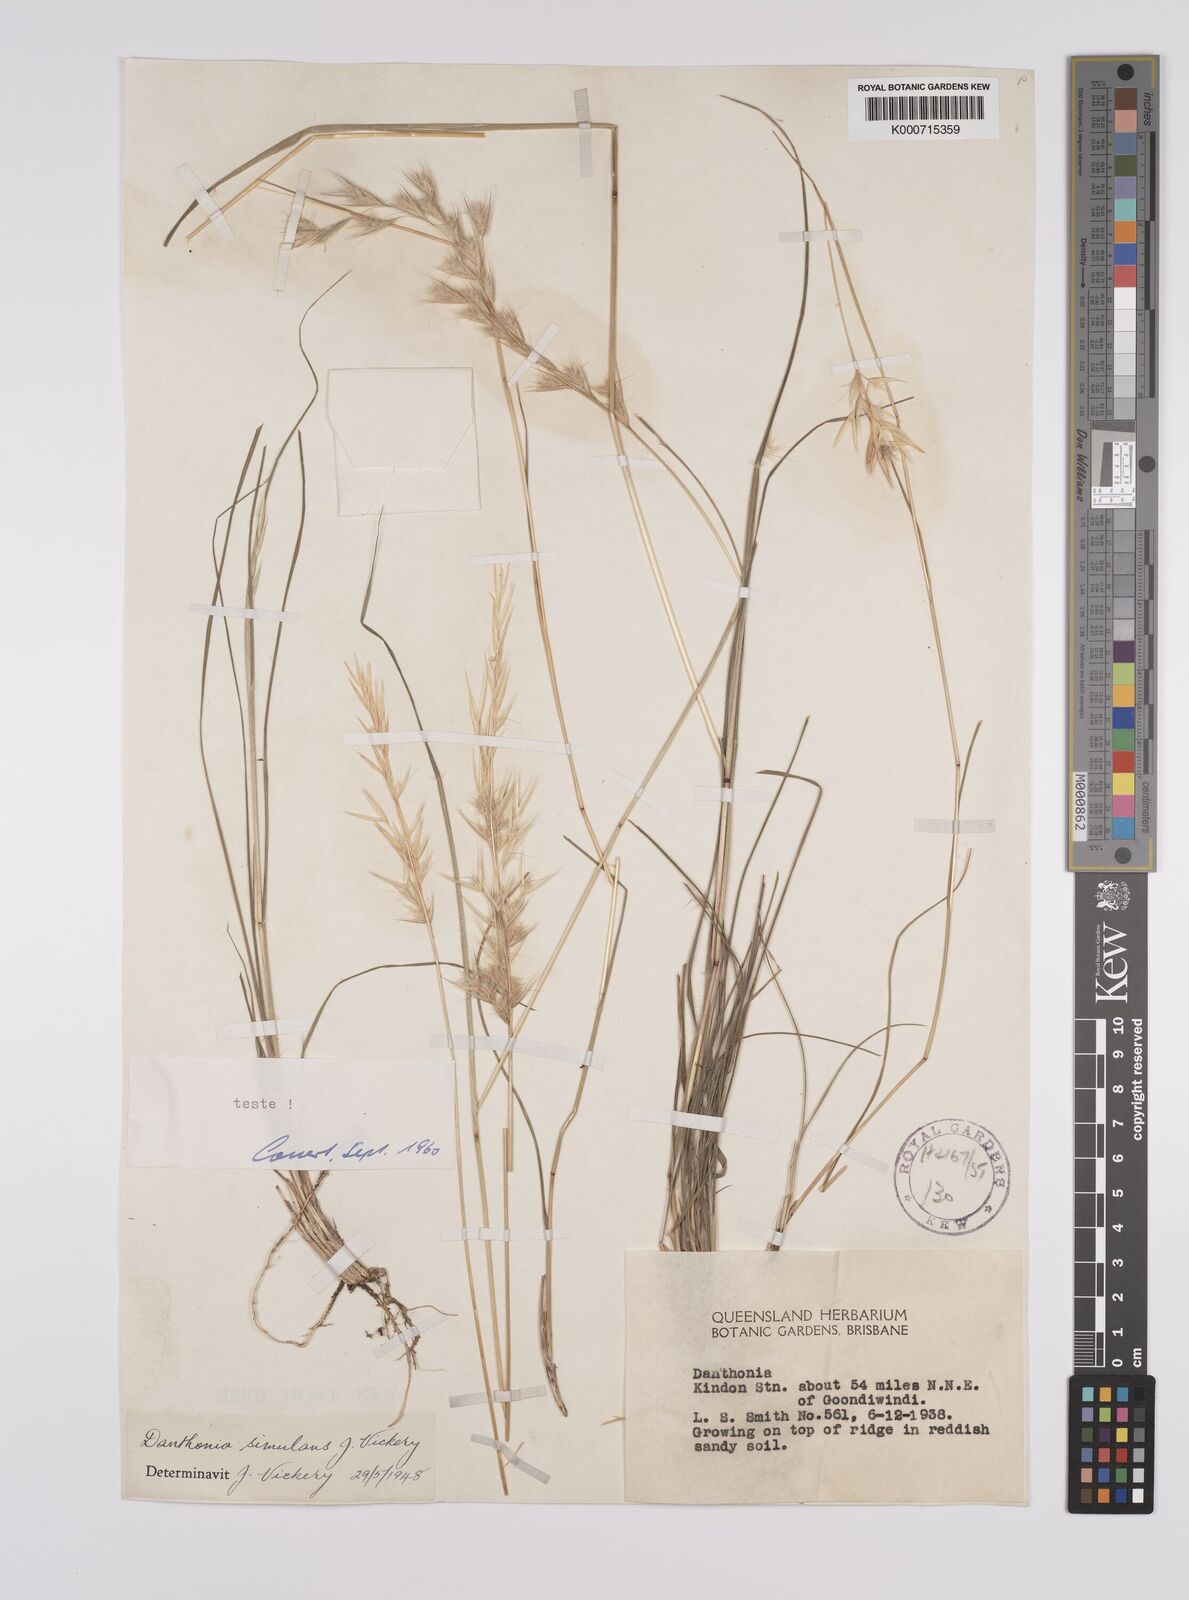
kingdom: Plantae
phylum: Tracheophyta
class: Liliopsida
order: Poales
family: Poaceae
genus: Rytidosperma
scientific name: Rytidosperma bipartitum
